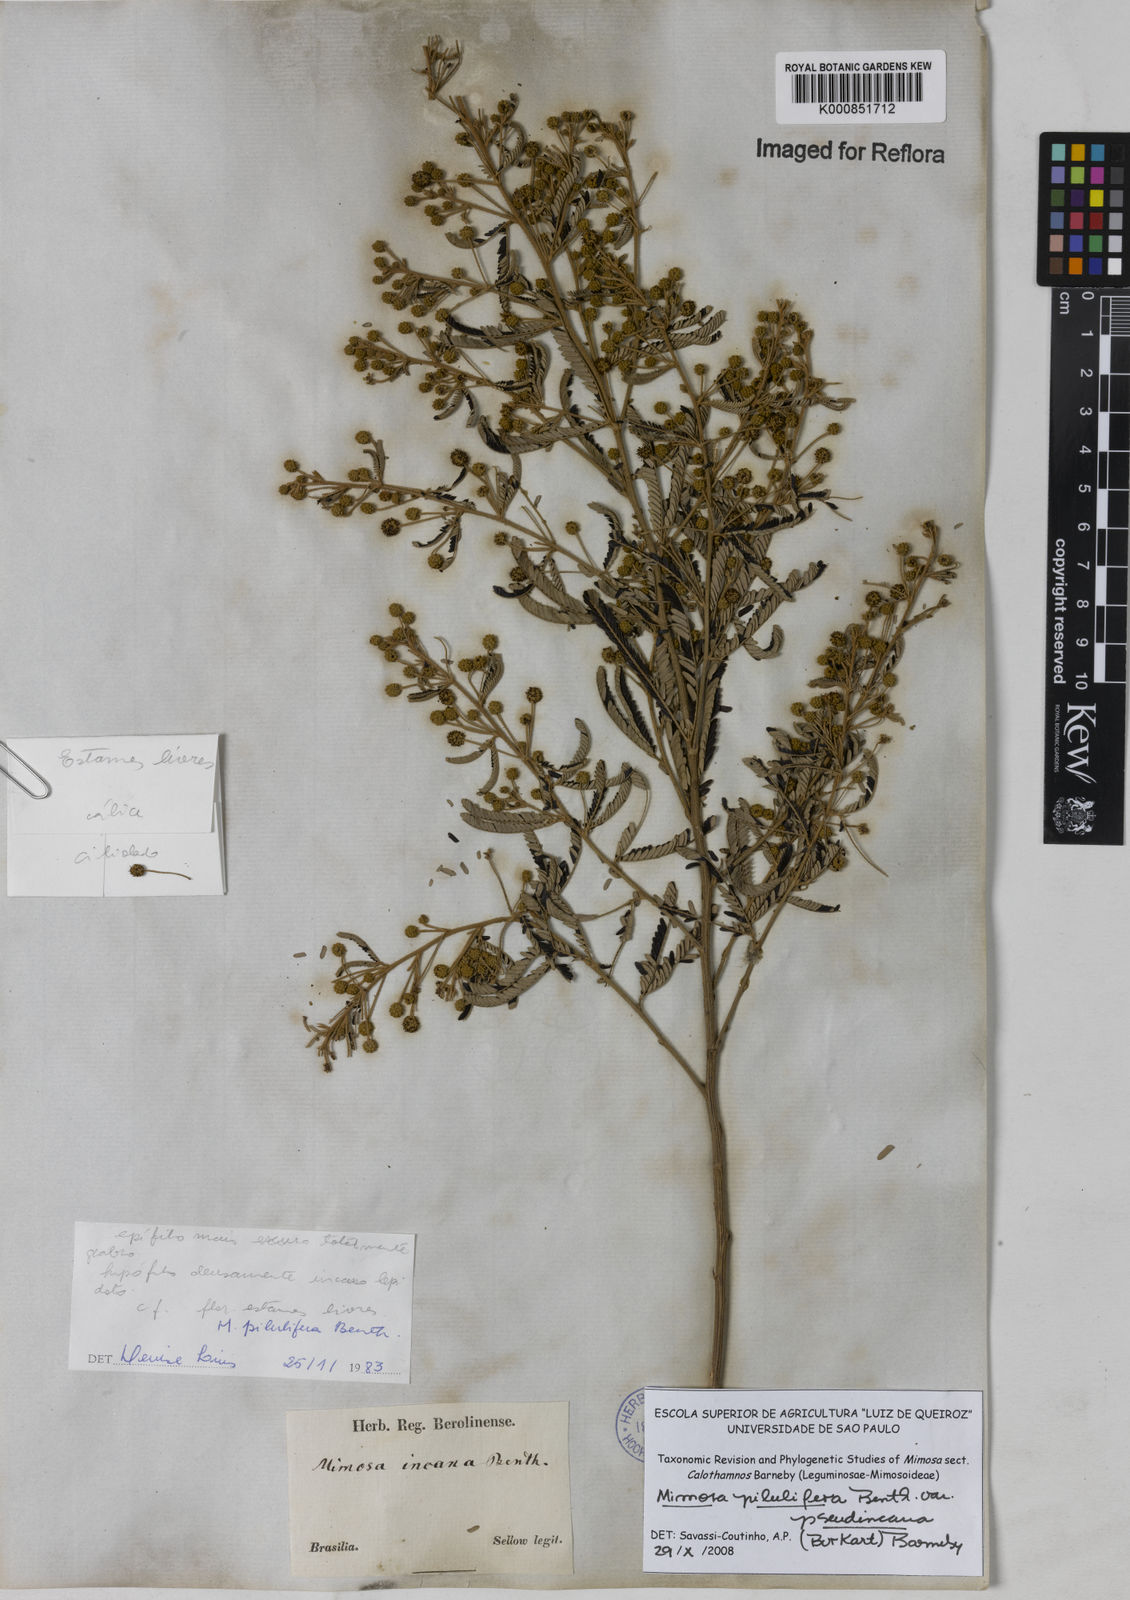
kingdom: Plantae
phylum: Tracheophyta
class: Magnoliopsida
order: Fabales
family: Fabaceae
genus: Mimosa
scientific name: Mimosa pilulifera
